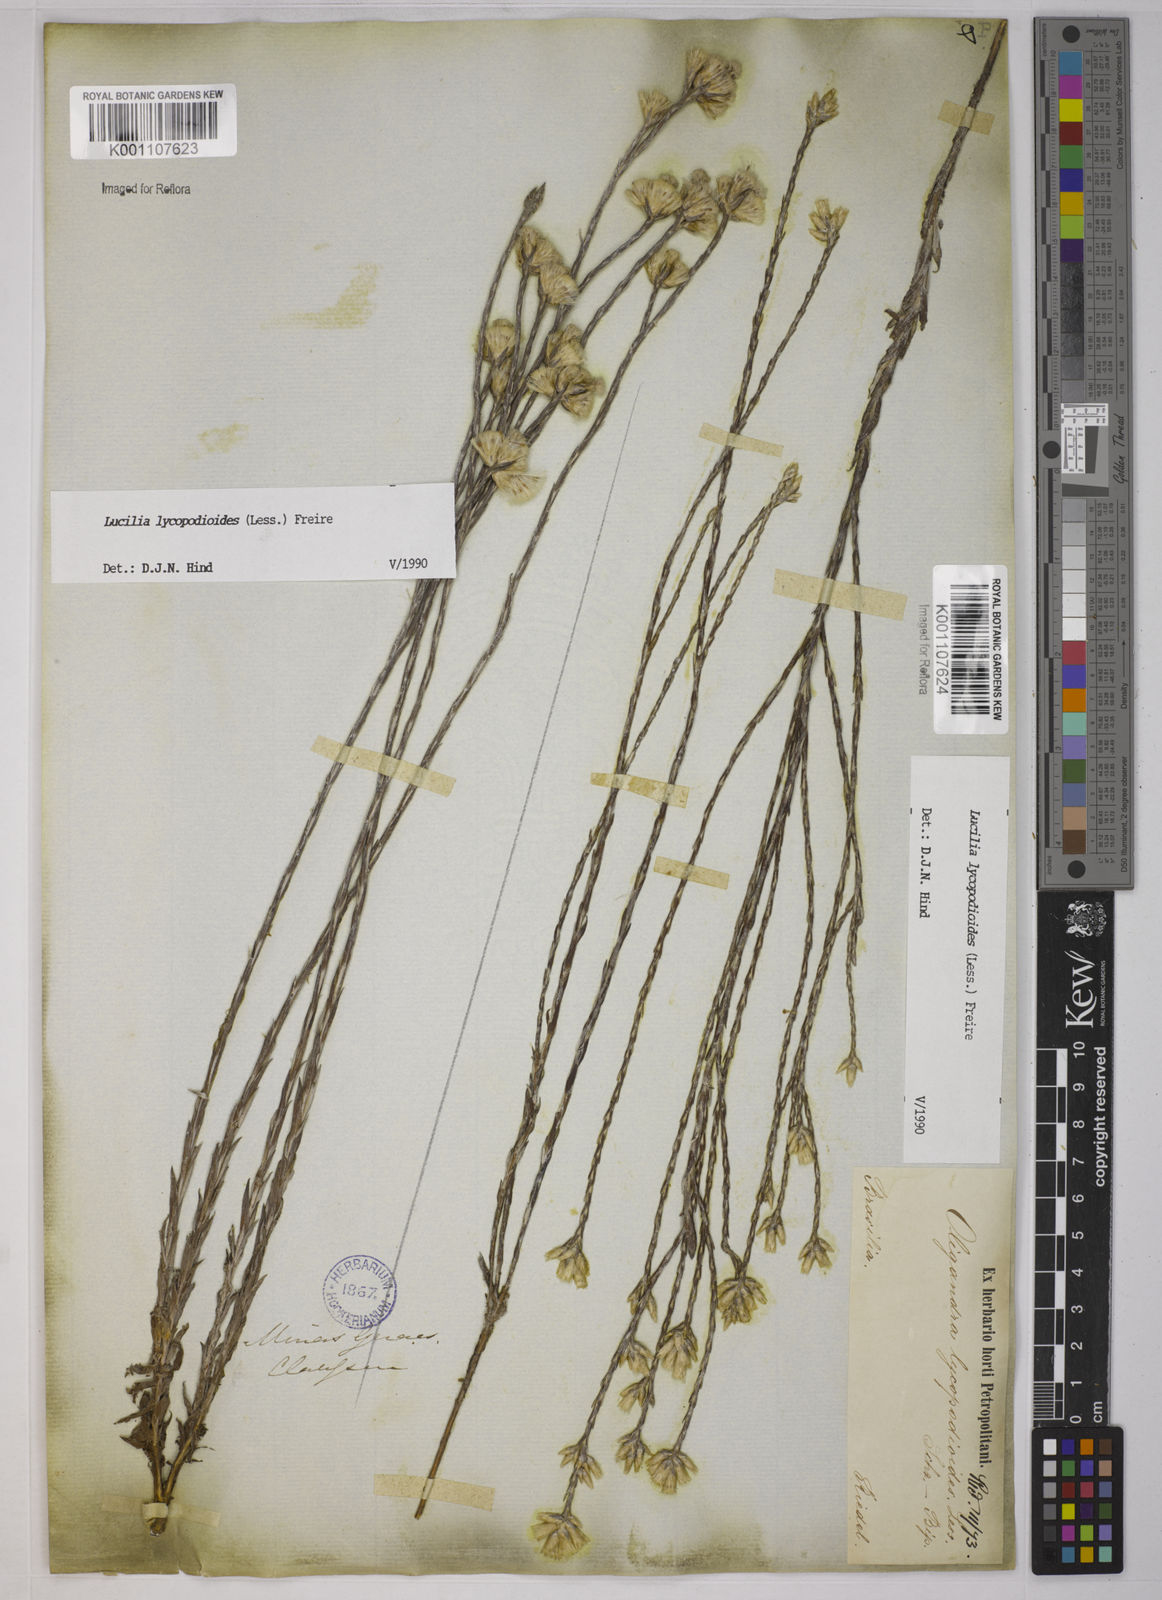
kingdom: Plantae
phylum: Tracheophyta
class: Magnoliopsida
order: Asterales
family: Asteraceae
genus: Lucilia
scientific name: Lucilia lycopodioides
